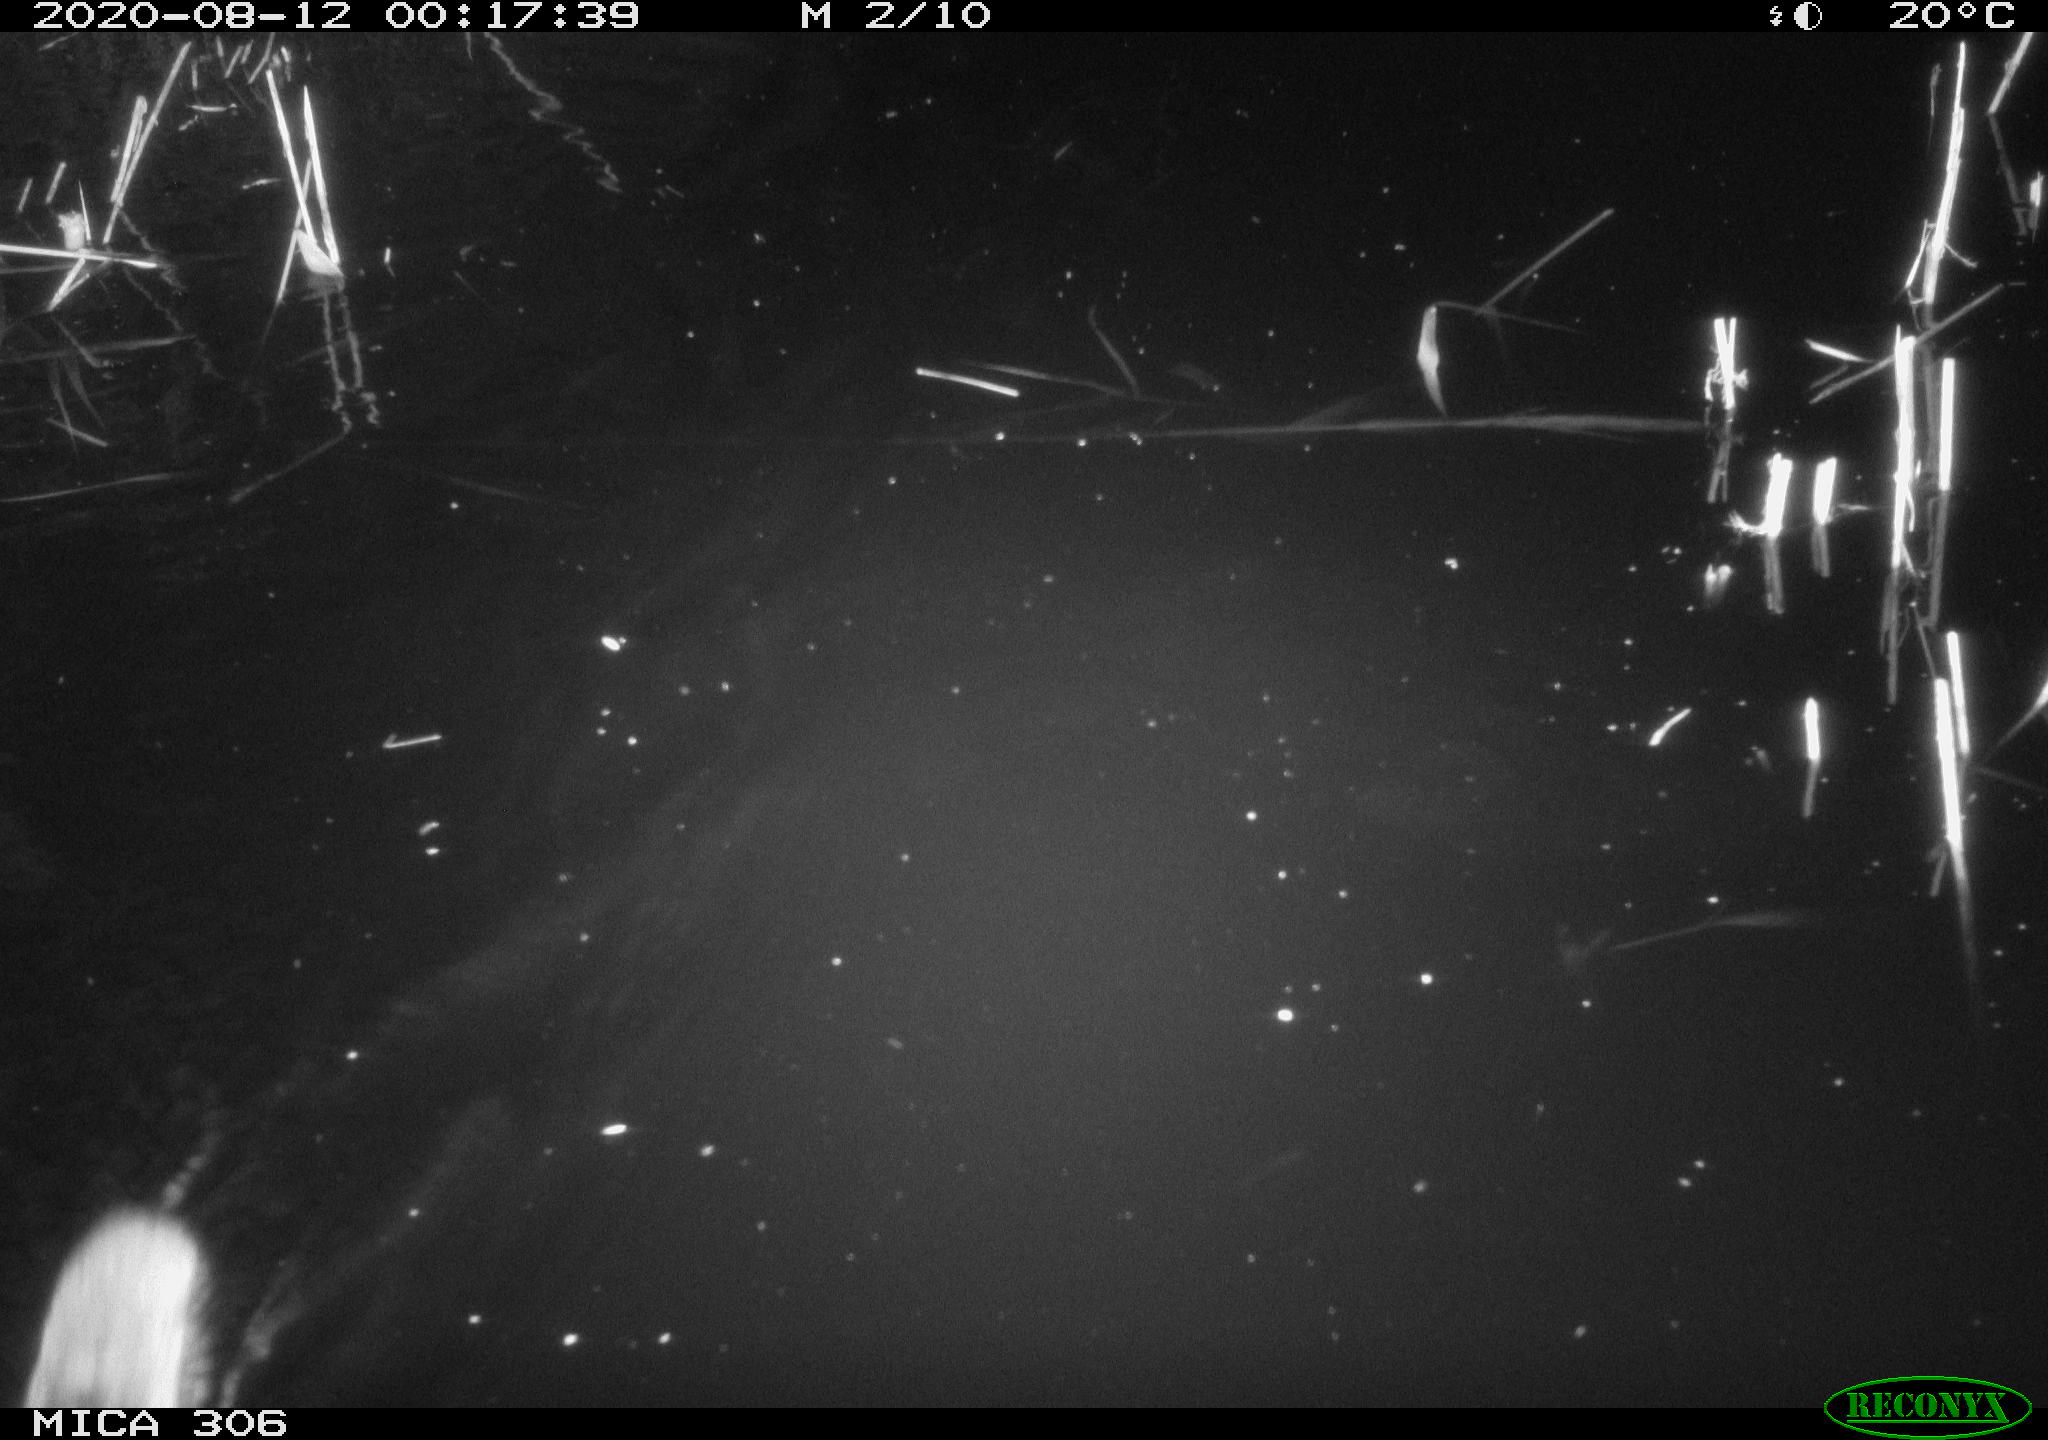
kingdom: Animalia
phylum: Chordata
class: Mammalia
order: Rodentia
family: Muridae
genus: Rattus
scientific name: Rattus norvegicus
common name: Brown rat
